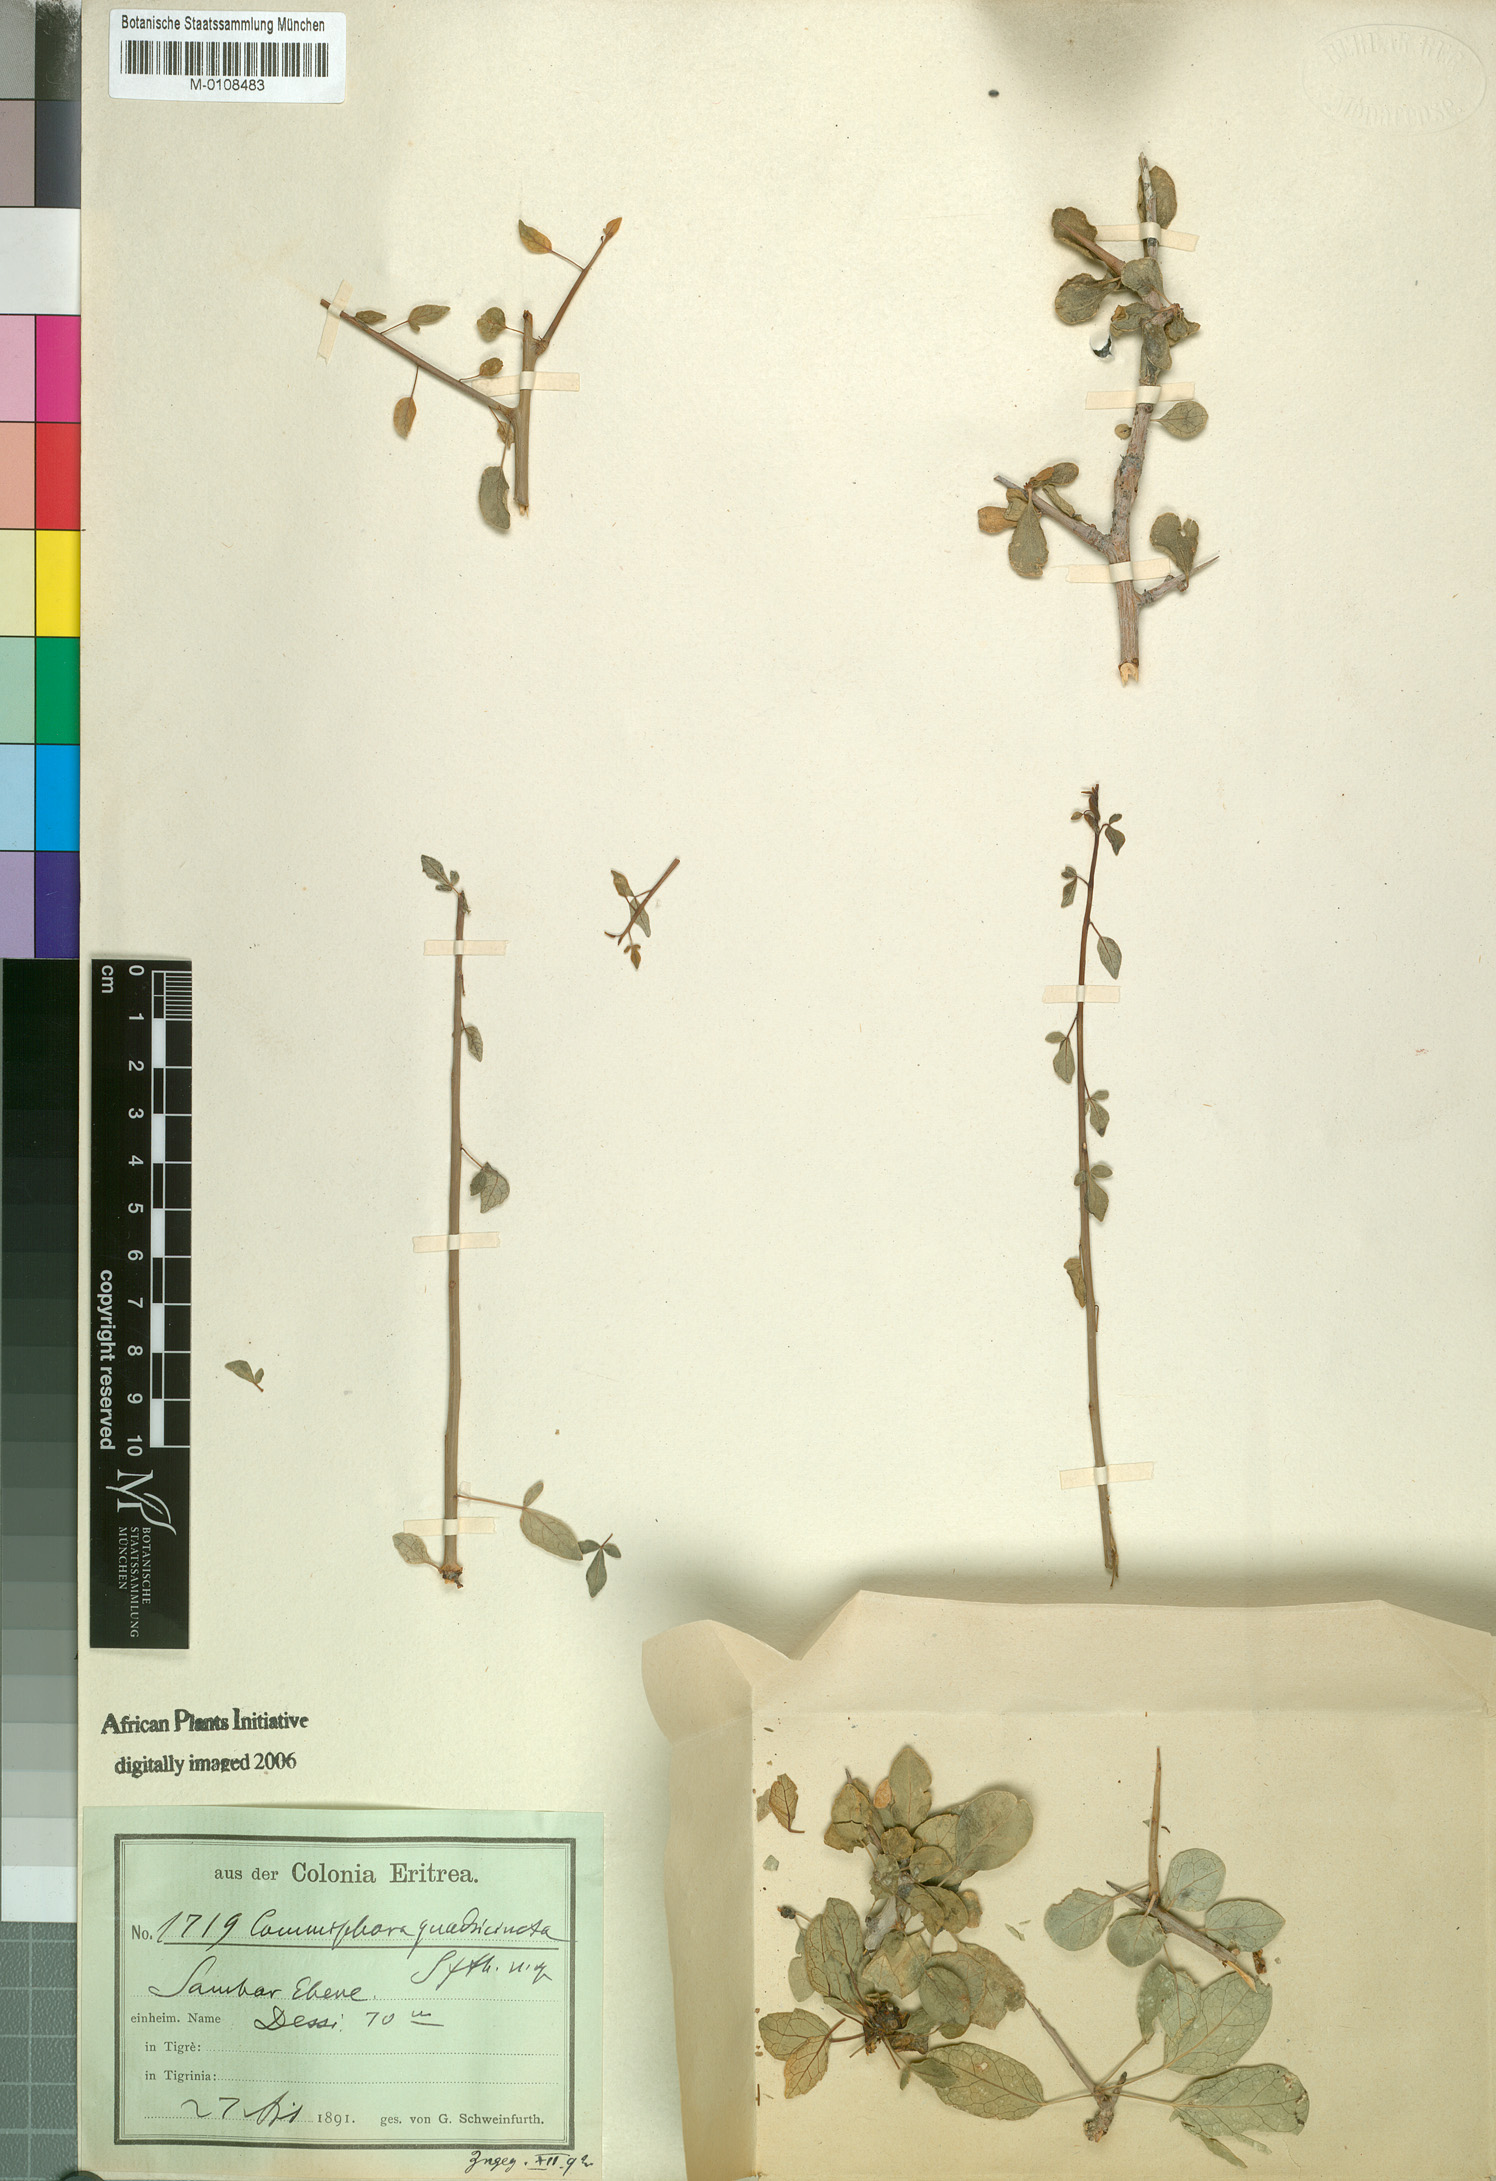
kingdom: Plantae
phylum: Tracheophyta
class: Magnoliopsida
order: Sapindales
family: Burseraceae
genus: Commiphora
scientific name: Commiphora quadricincta
